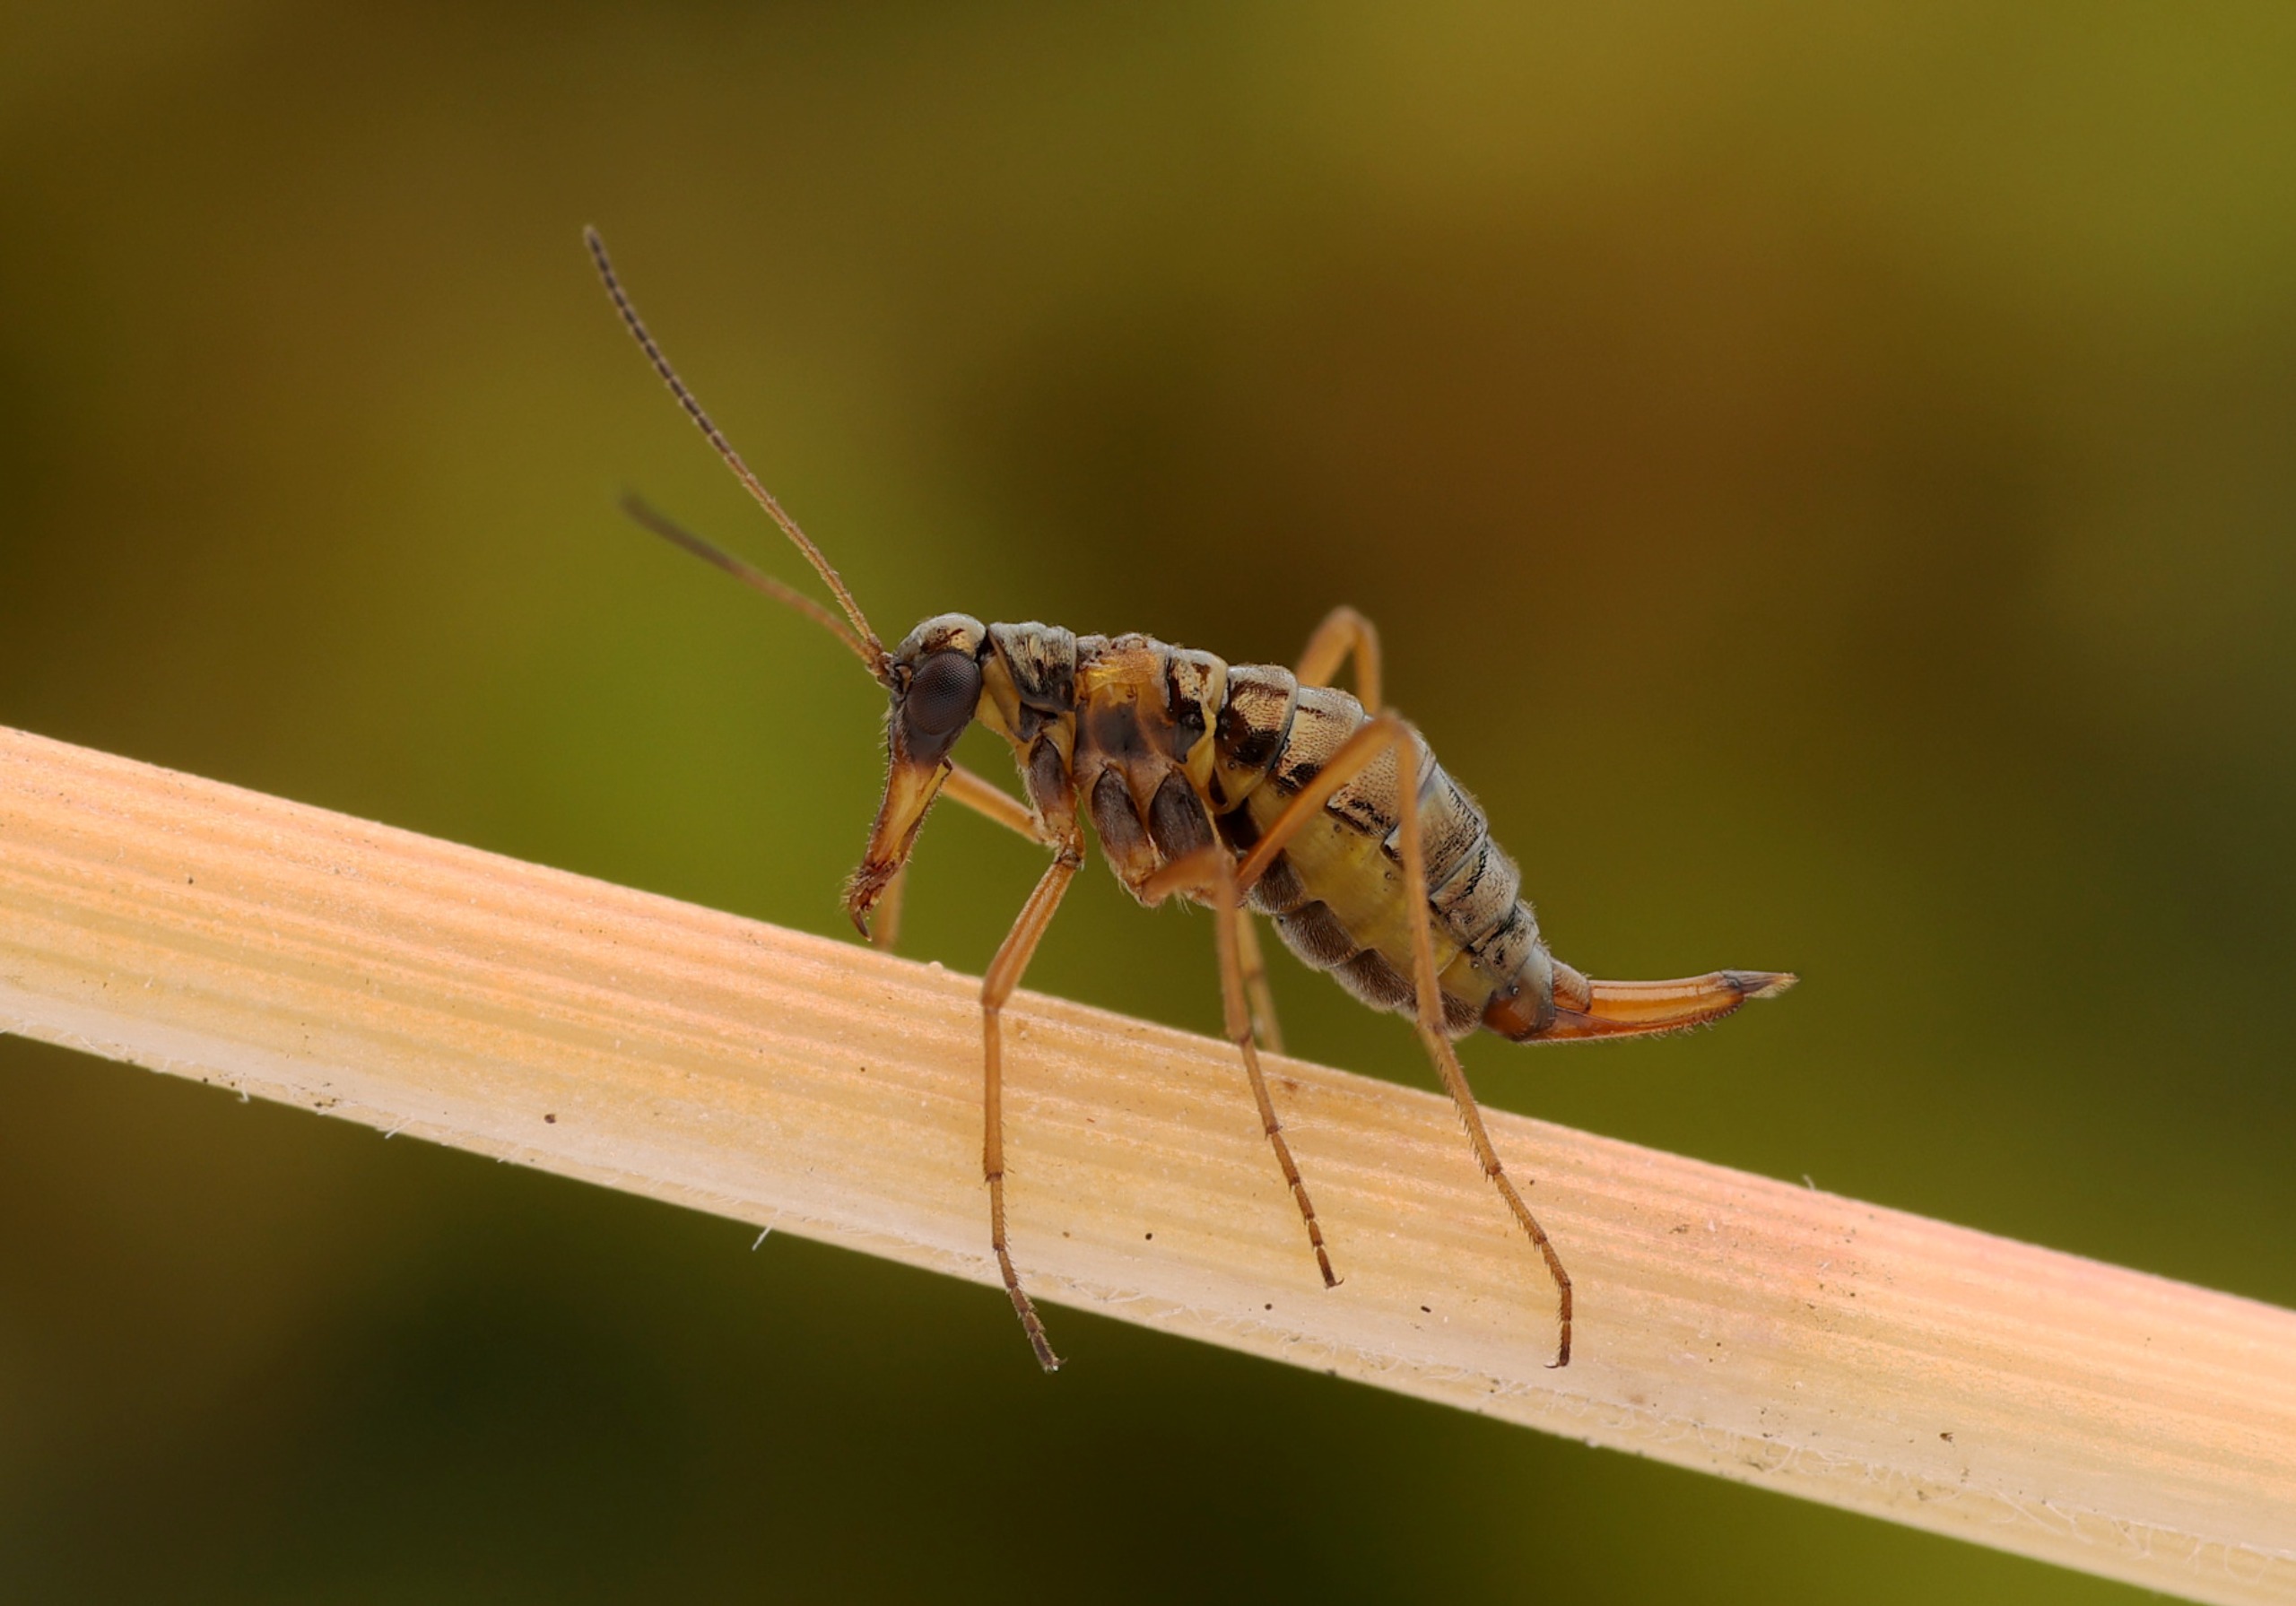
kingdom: Animalia
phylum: Arthropoda
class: Insecta
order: Mecoptera
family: Boreidae
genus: Boreus
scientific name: Boreus hyemalis
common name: Sneloppe
